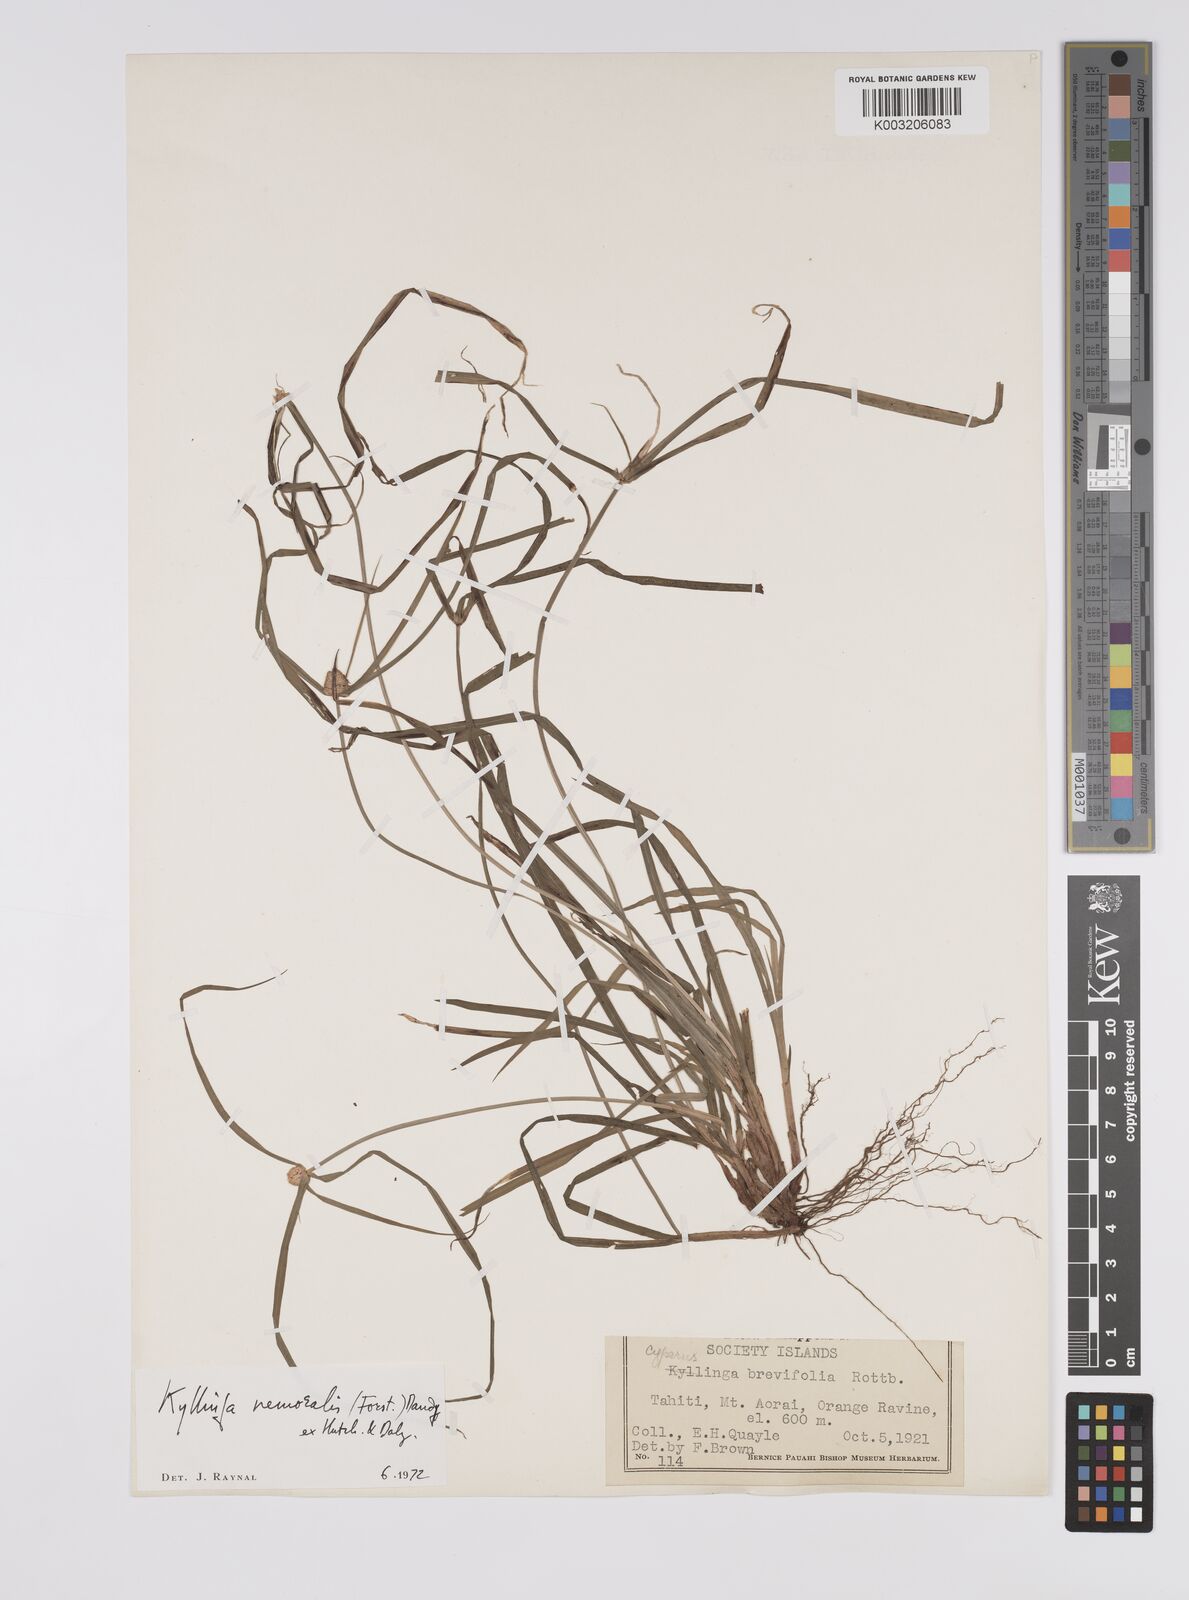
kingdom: Plantae
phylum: Tracheophyta
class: Liliopsida
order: Poales
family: Cyperaceae
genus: Cyperus
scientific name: Cyperus nemoralis
